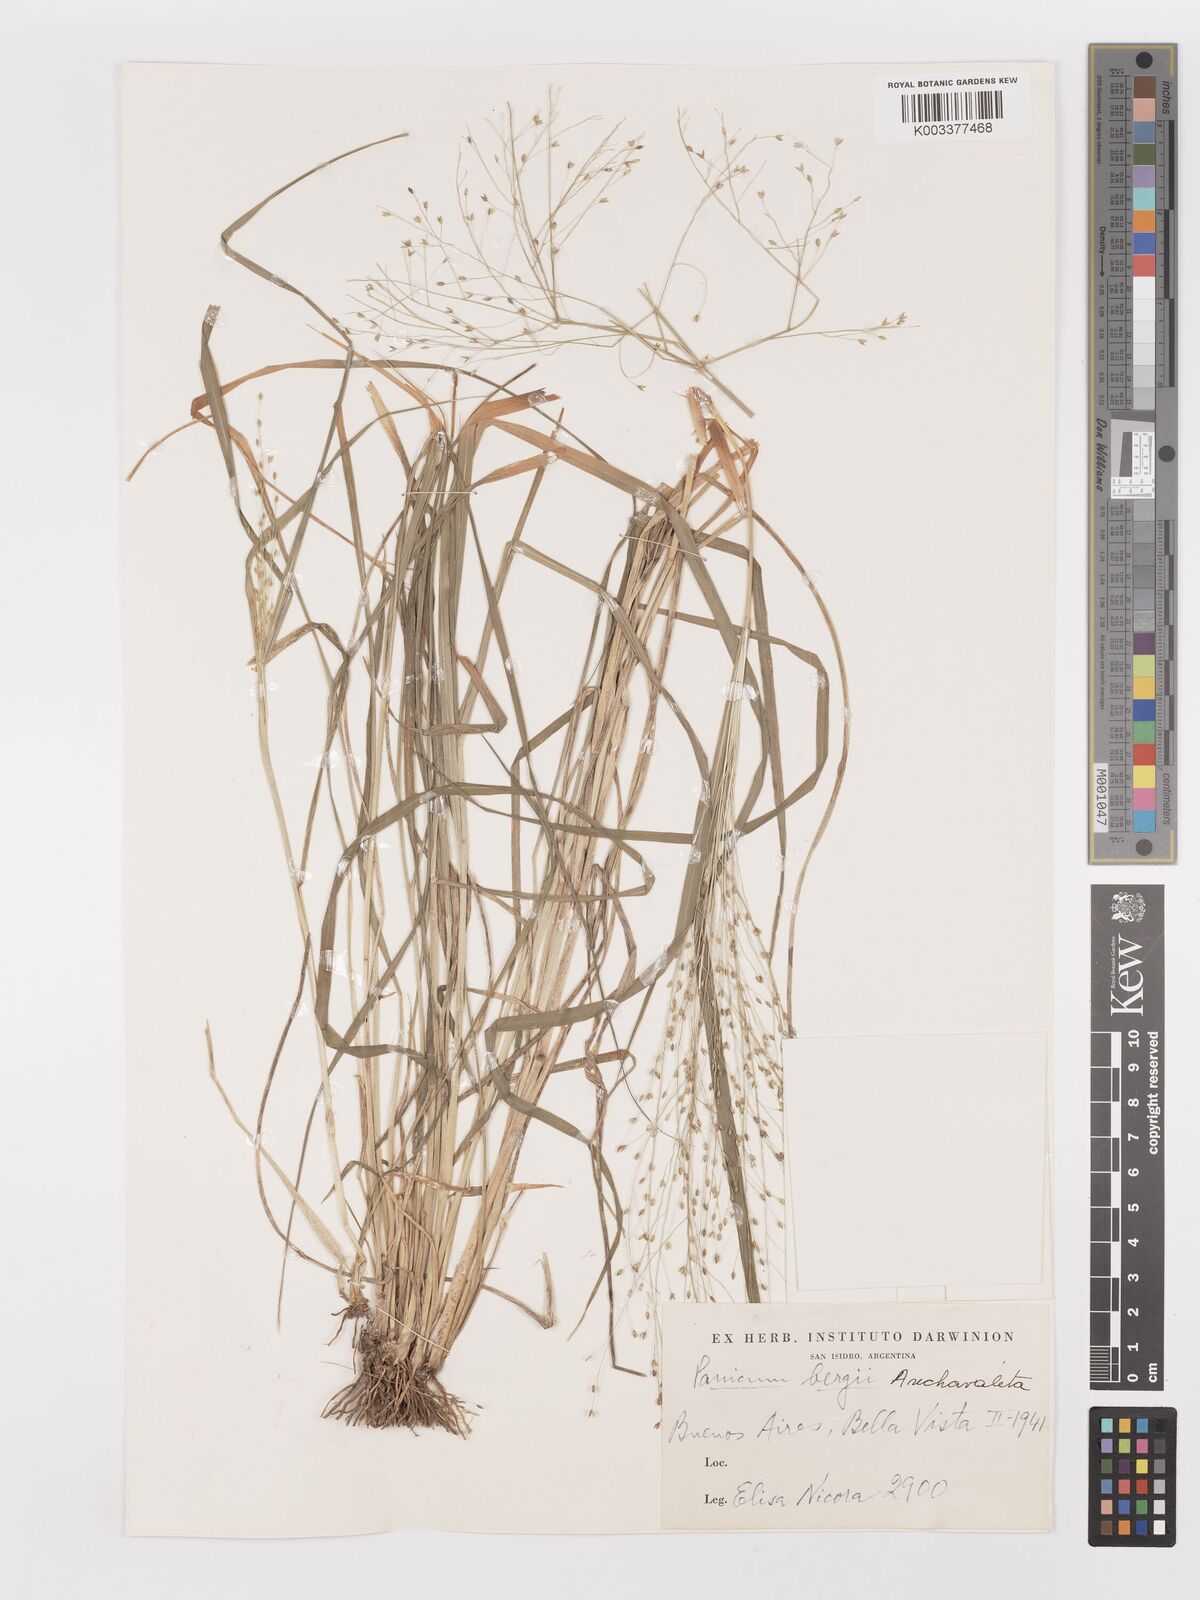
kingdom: Plantae
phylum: Tracheophyta
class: Liliopsida
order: Poales
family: Poaceae
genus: Panicum
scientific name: Panicum bergii
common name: Berg's panicgrass
